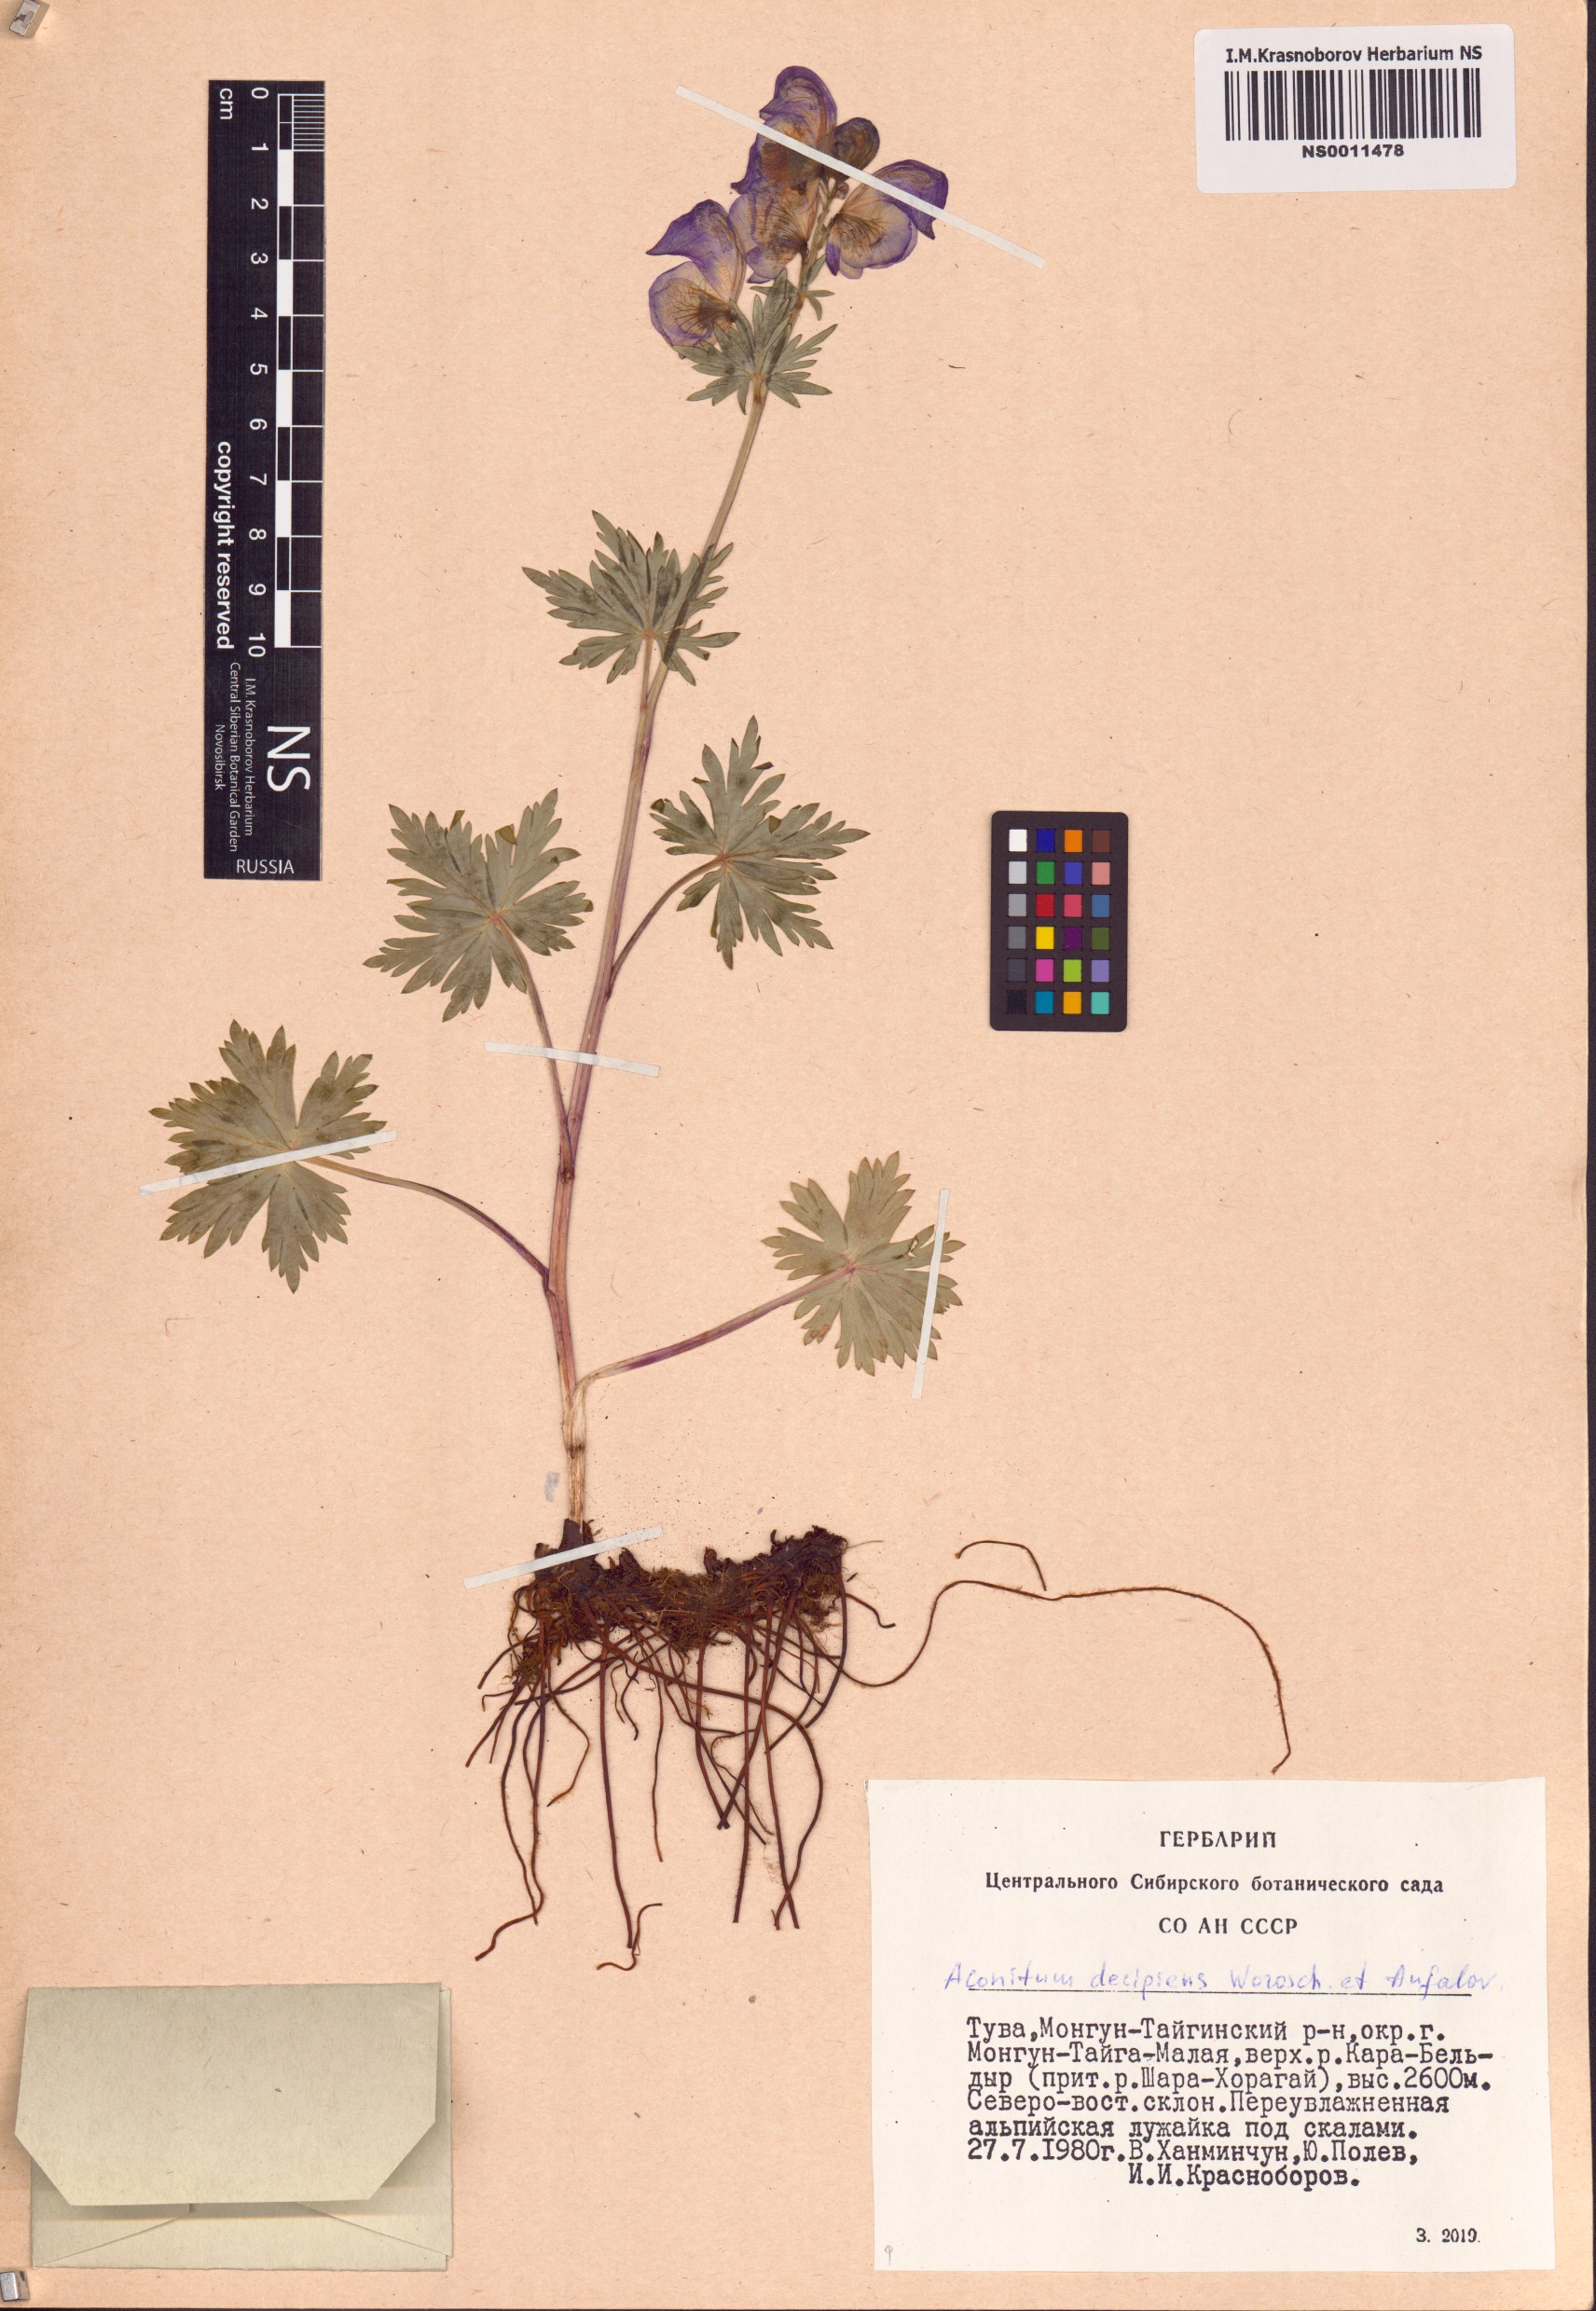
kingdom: Plantae
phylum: Tracheophyta
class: Magnoliopsida
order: Ranunculales
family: Ranunculaceae
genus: Aconitum
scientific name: Aconitum decipiens
